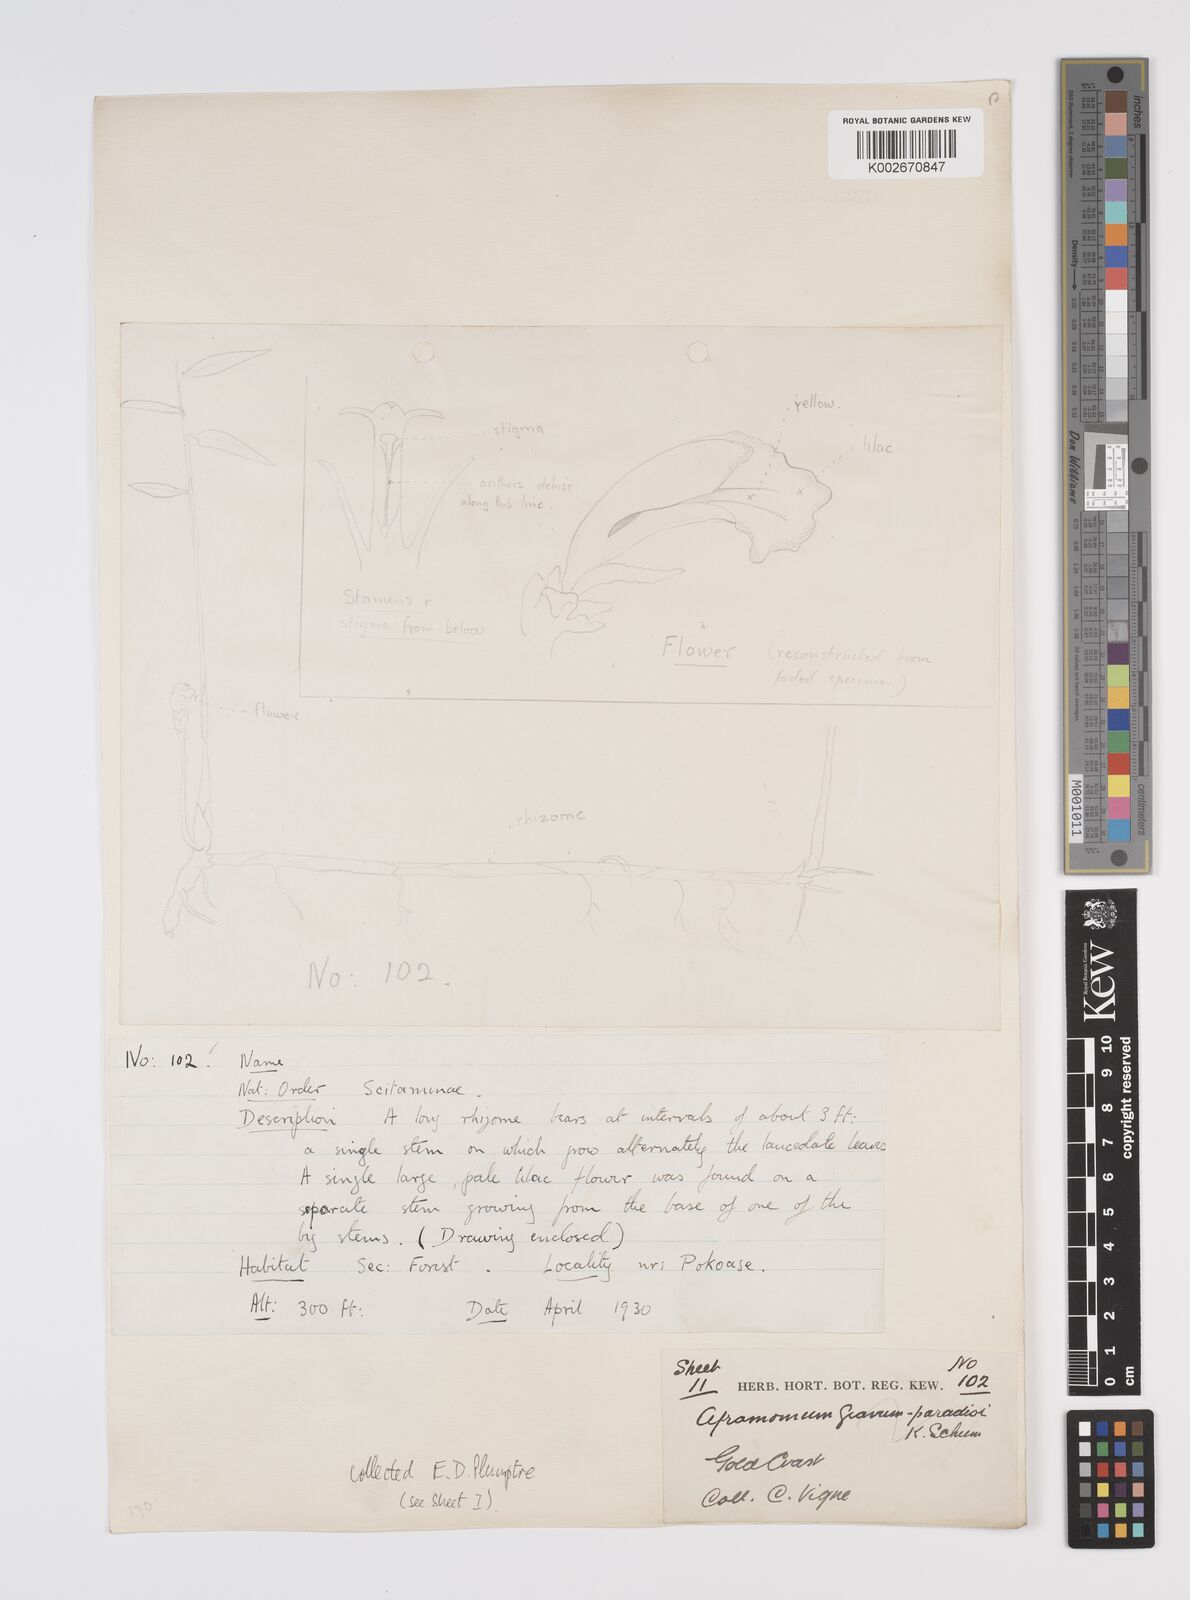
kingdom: Plantae
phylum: Tracheophyta
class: Liliopsida
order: Zingiberales
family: Zingiberaceae
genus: Aframomum
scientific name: Aframomum cereum
